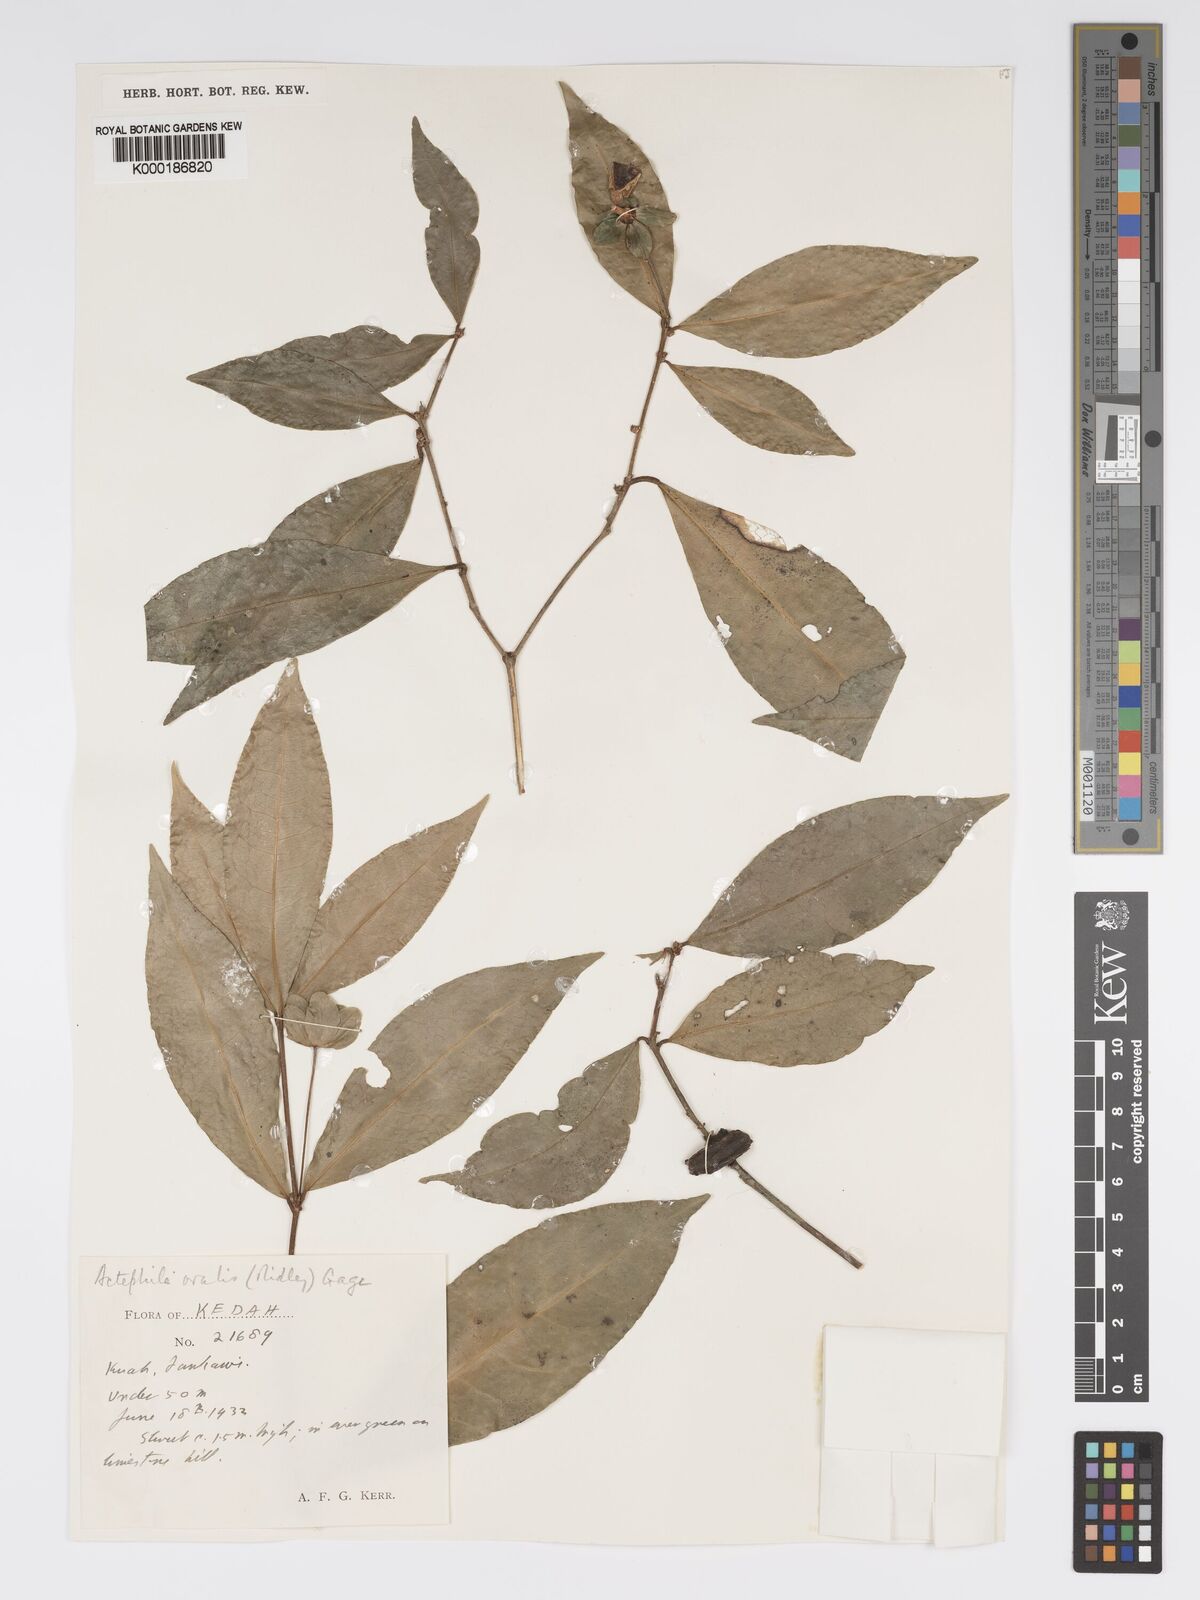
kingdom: Plantae
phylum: Tracheophyta
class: Magnoliopsida
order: Malpighiales
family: Phyllanthaceae
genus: Actephila
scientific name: Actephila ovalis
